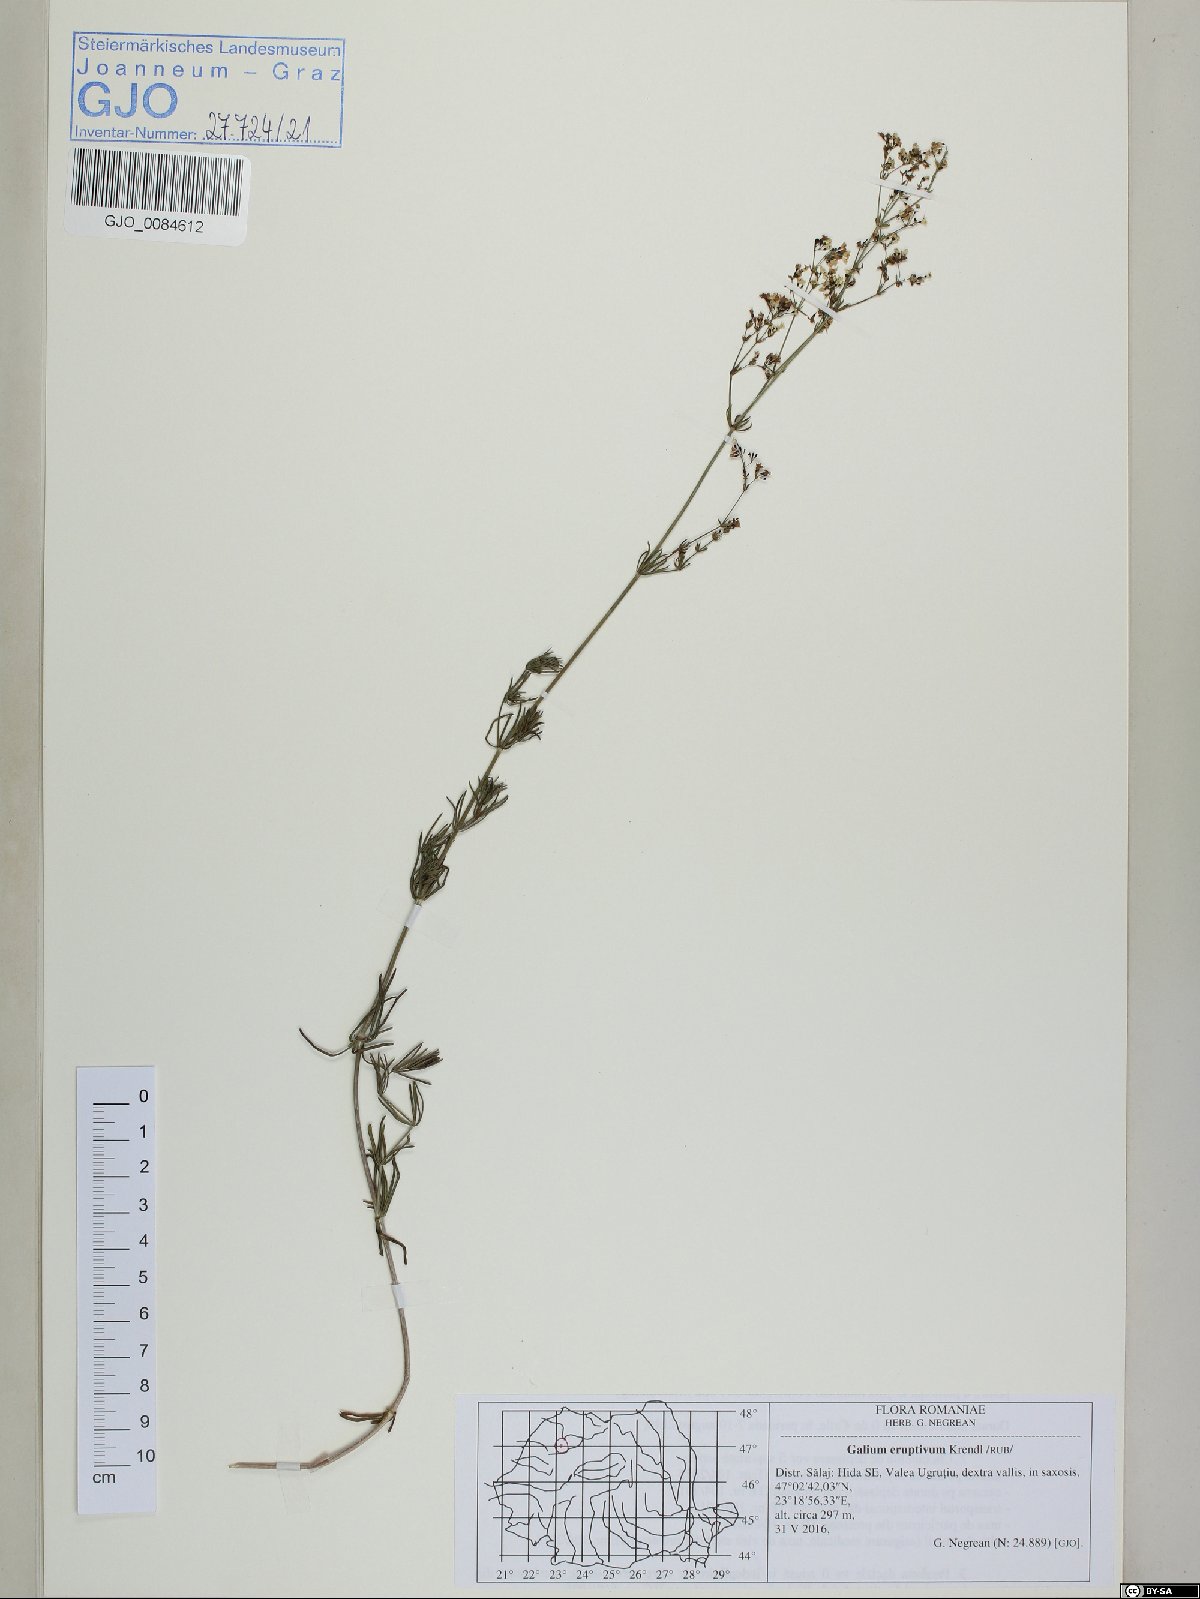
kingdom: Plantae
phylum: Tracheophyta
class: Magnoliopsida
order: Gentianales
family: Rubiaceae
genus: Galium
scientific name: Galium eruptivum
